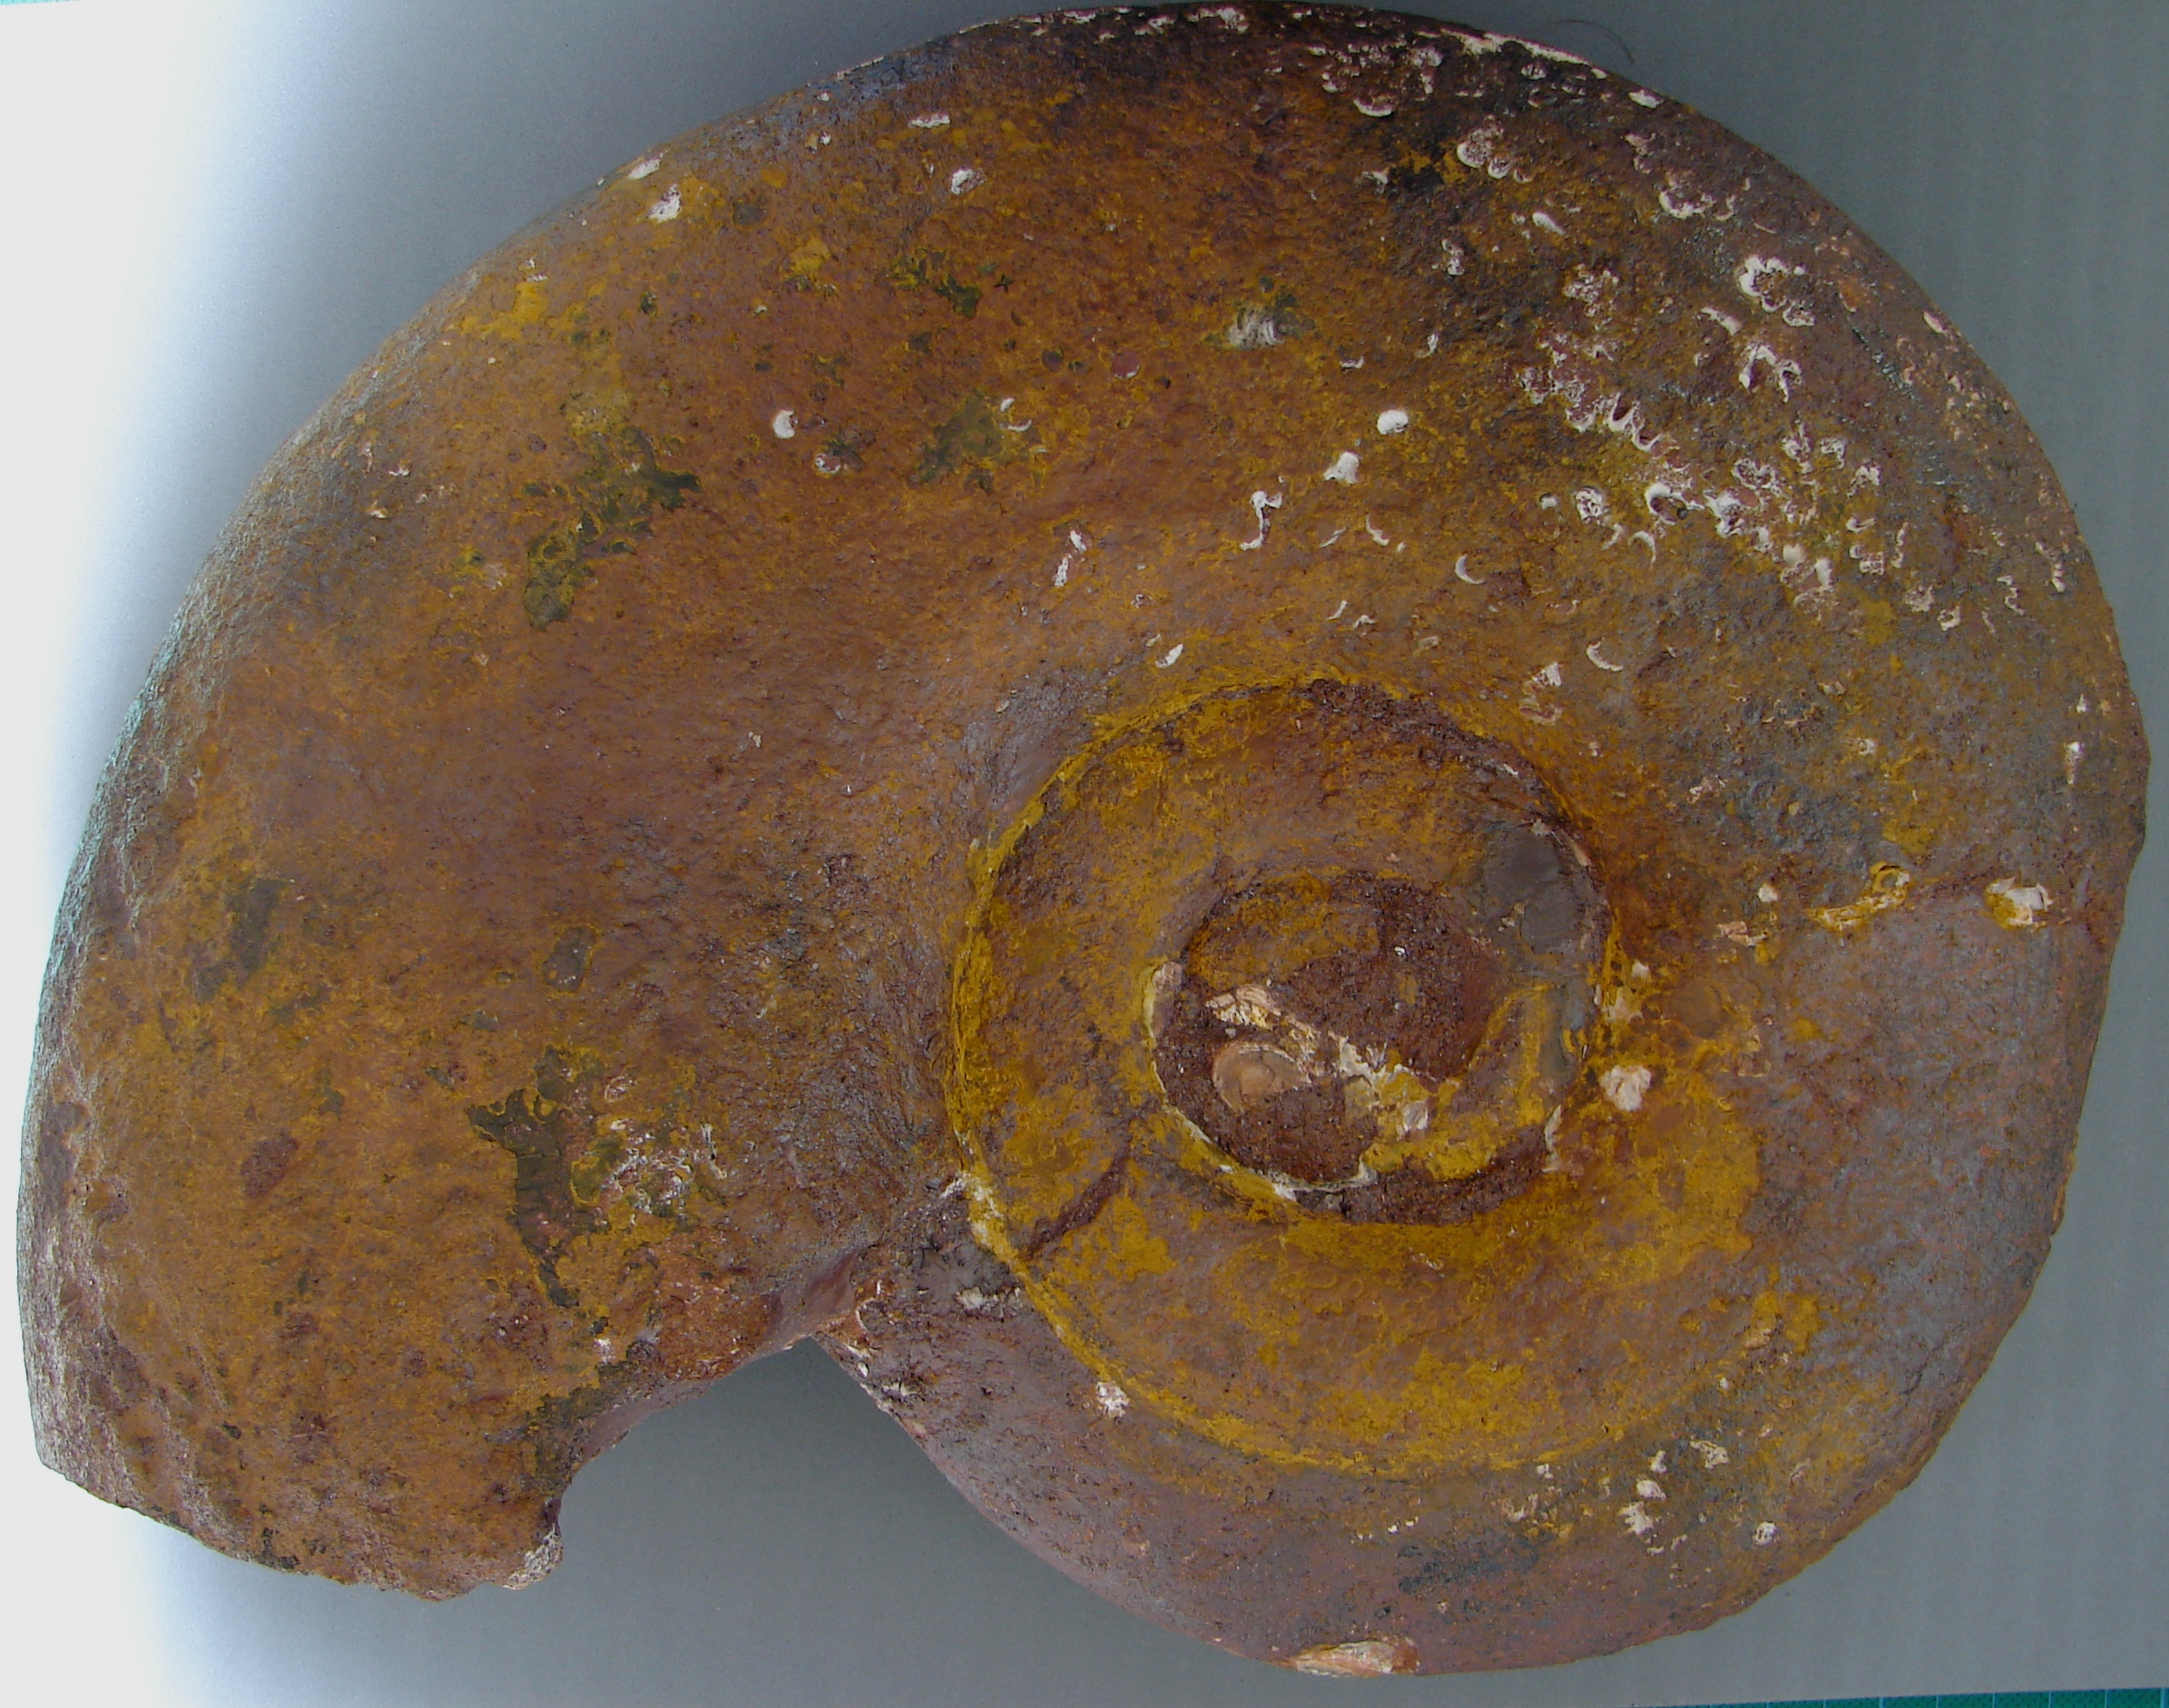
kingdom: Animalia
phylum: Mollusca
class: Cephalopoda
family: Lytoceratidae
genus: Pleurolytoceras
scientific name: Pleurolytoceras wrighti
